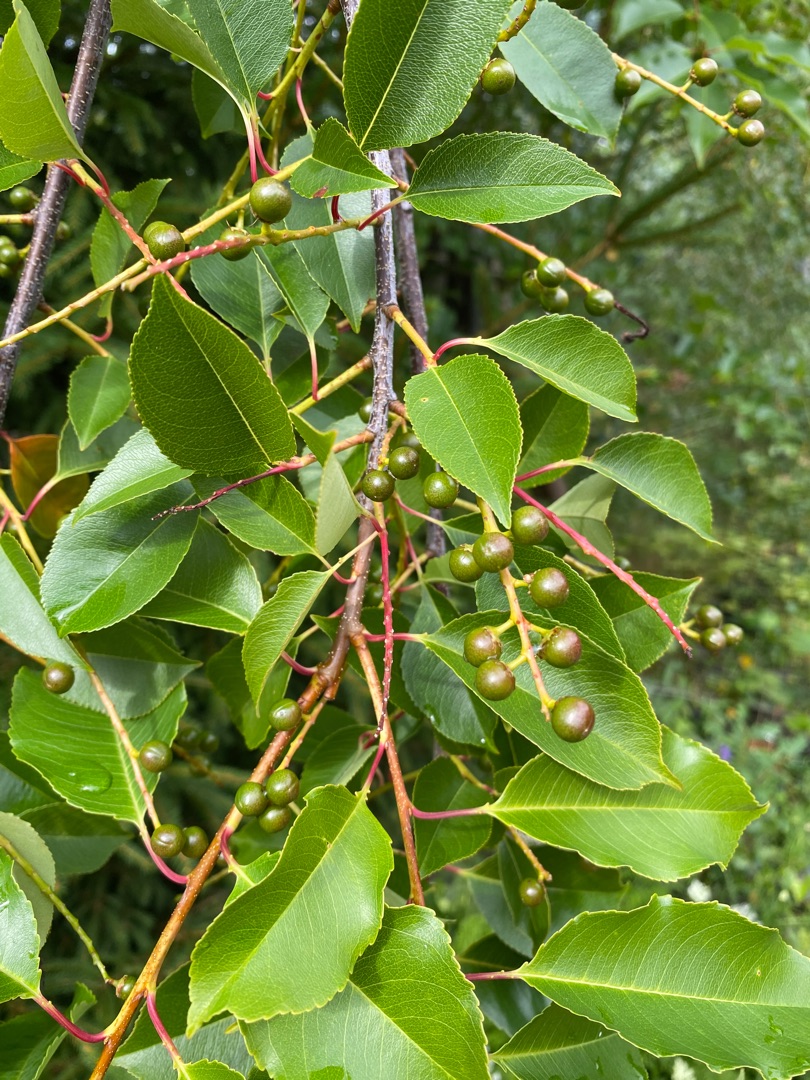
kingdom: Plantae
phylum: Tracheophyta
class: Magnoliopsida
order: Rosales
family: Rosaceae
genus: Prunus
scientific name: Prunus serotina
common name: Glansbladet hæg
